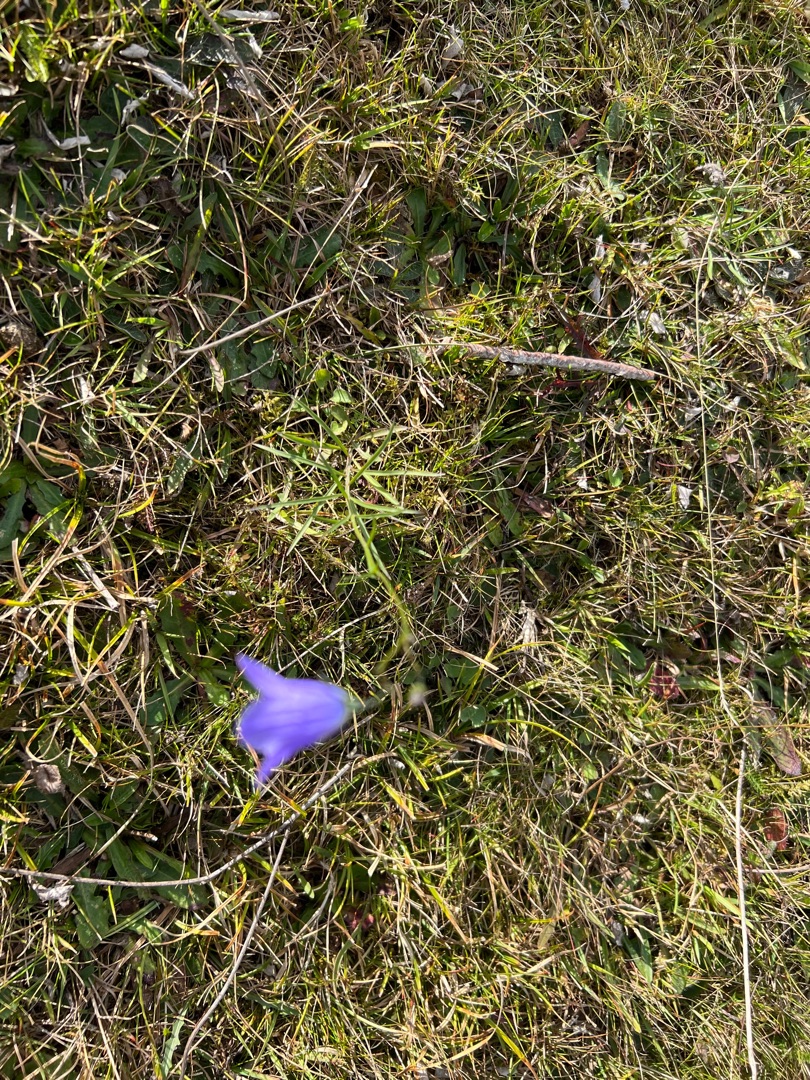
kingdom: Plantae
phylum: Tracheophyta
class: Magnoliopsida
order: Asterales
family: Campanulaceae
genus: Campanula
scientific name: Campanula rotundifolia
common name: Liden klokke
